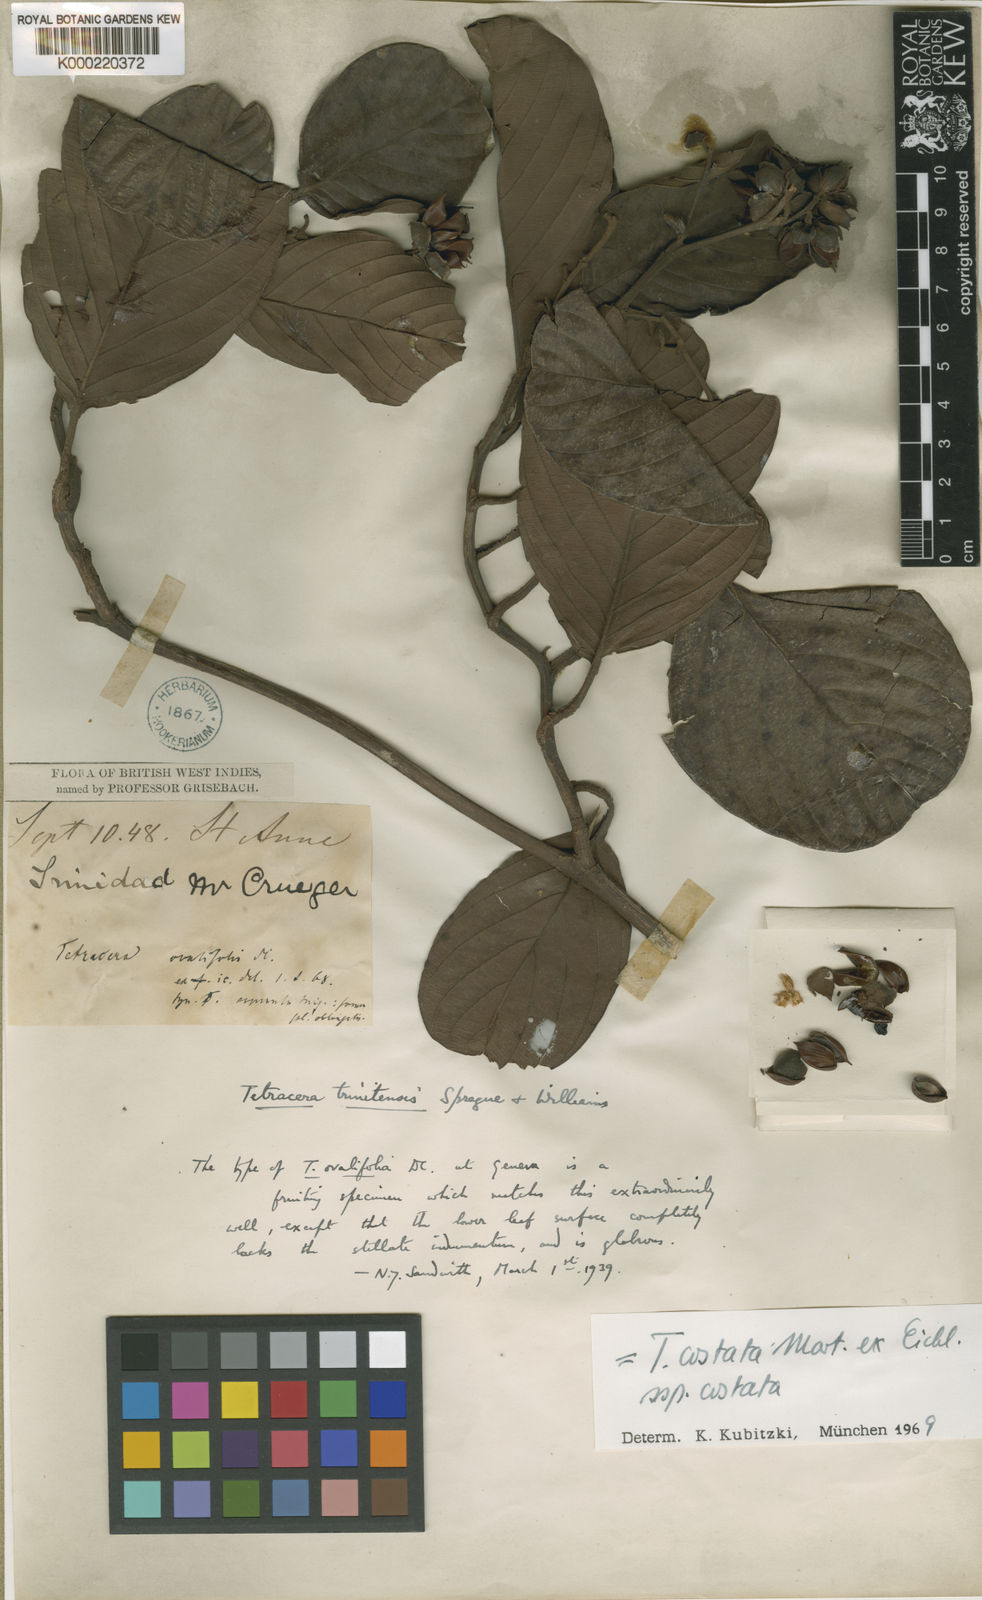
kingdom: Plantae
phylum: Tracheophyta
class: Magnoliopsida
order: Dilleniales
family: Dilleniaceae
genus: Tetracera
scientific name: Tetracera costata
